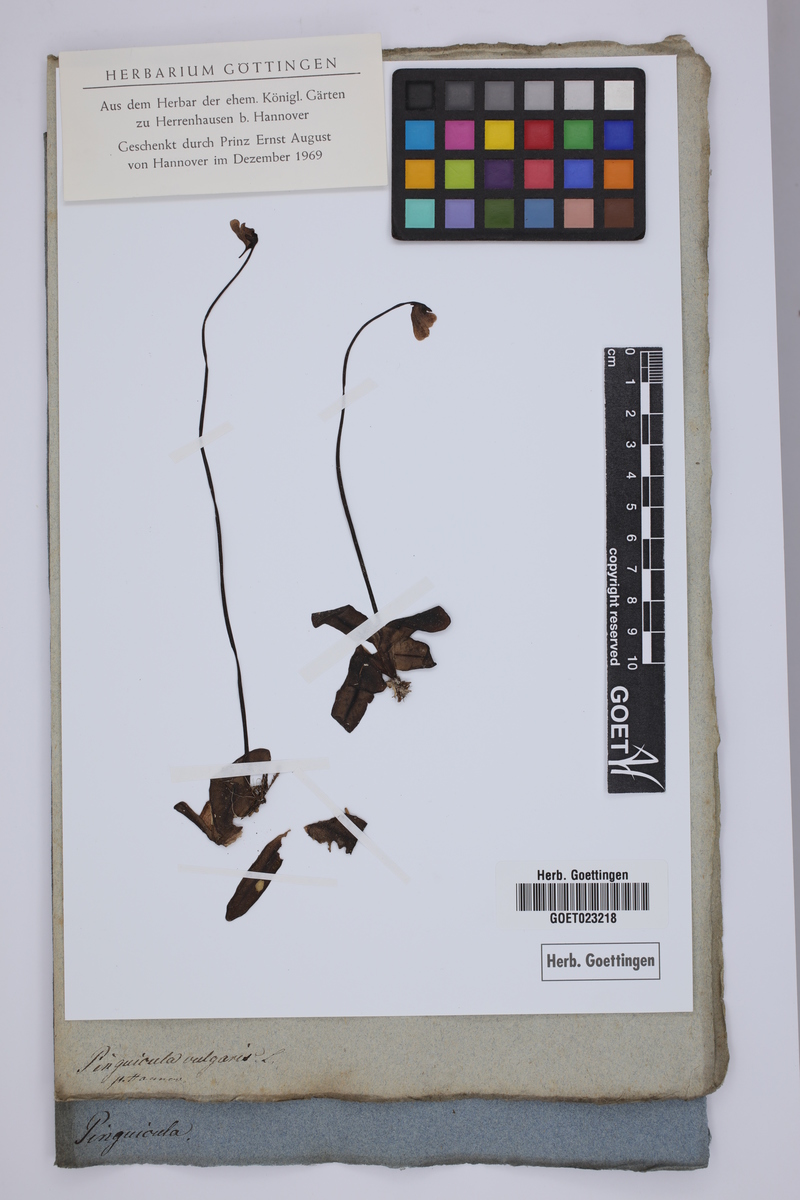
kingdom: Plantae
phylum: Tracheophyta
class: Magnoliopsida
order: Lamiales
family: Lentibulariaceae
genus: Pinguicula
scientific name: Pinguicula vulgaris
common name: Common butterwort
